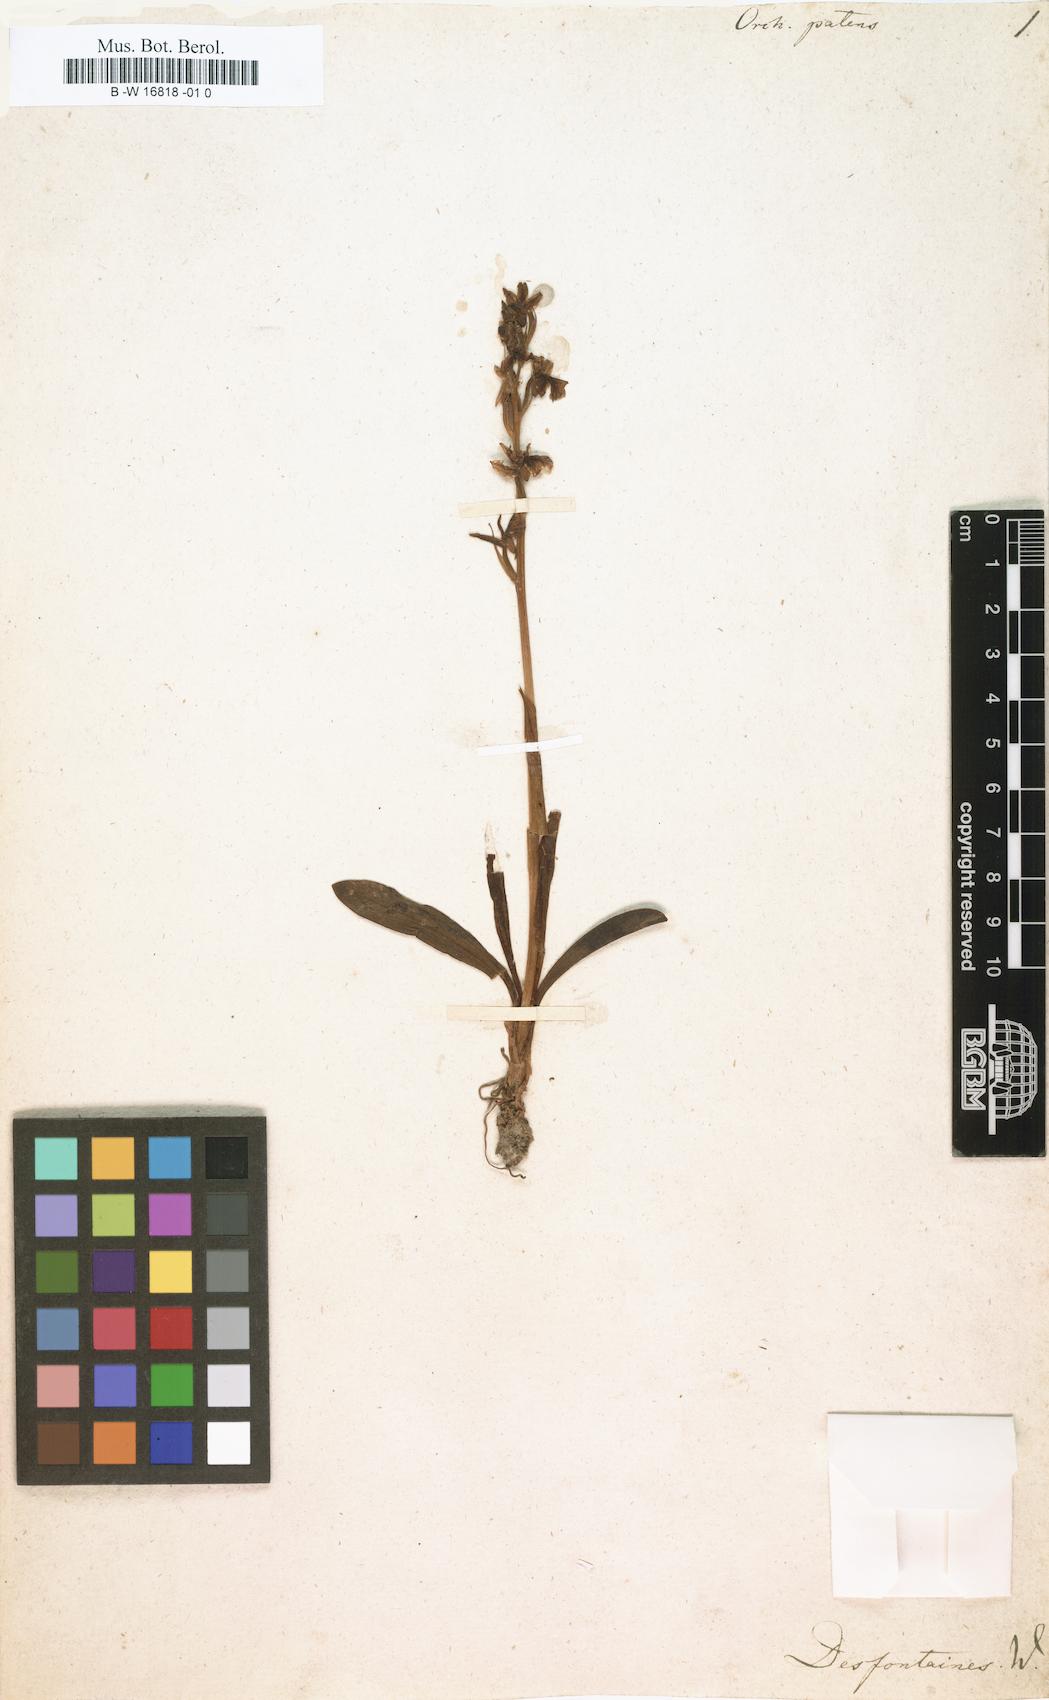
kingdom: Plantae
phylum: Tracheophyta
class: Liliopsida
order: Asparagales
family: Orchidaceae
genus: Orchis
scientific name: Orchis patens
